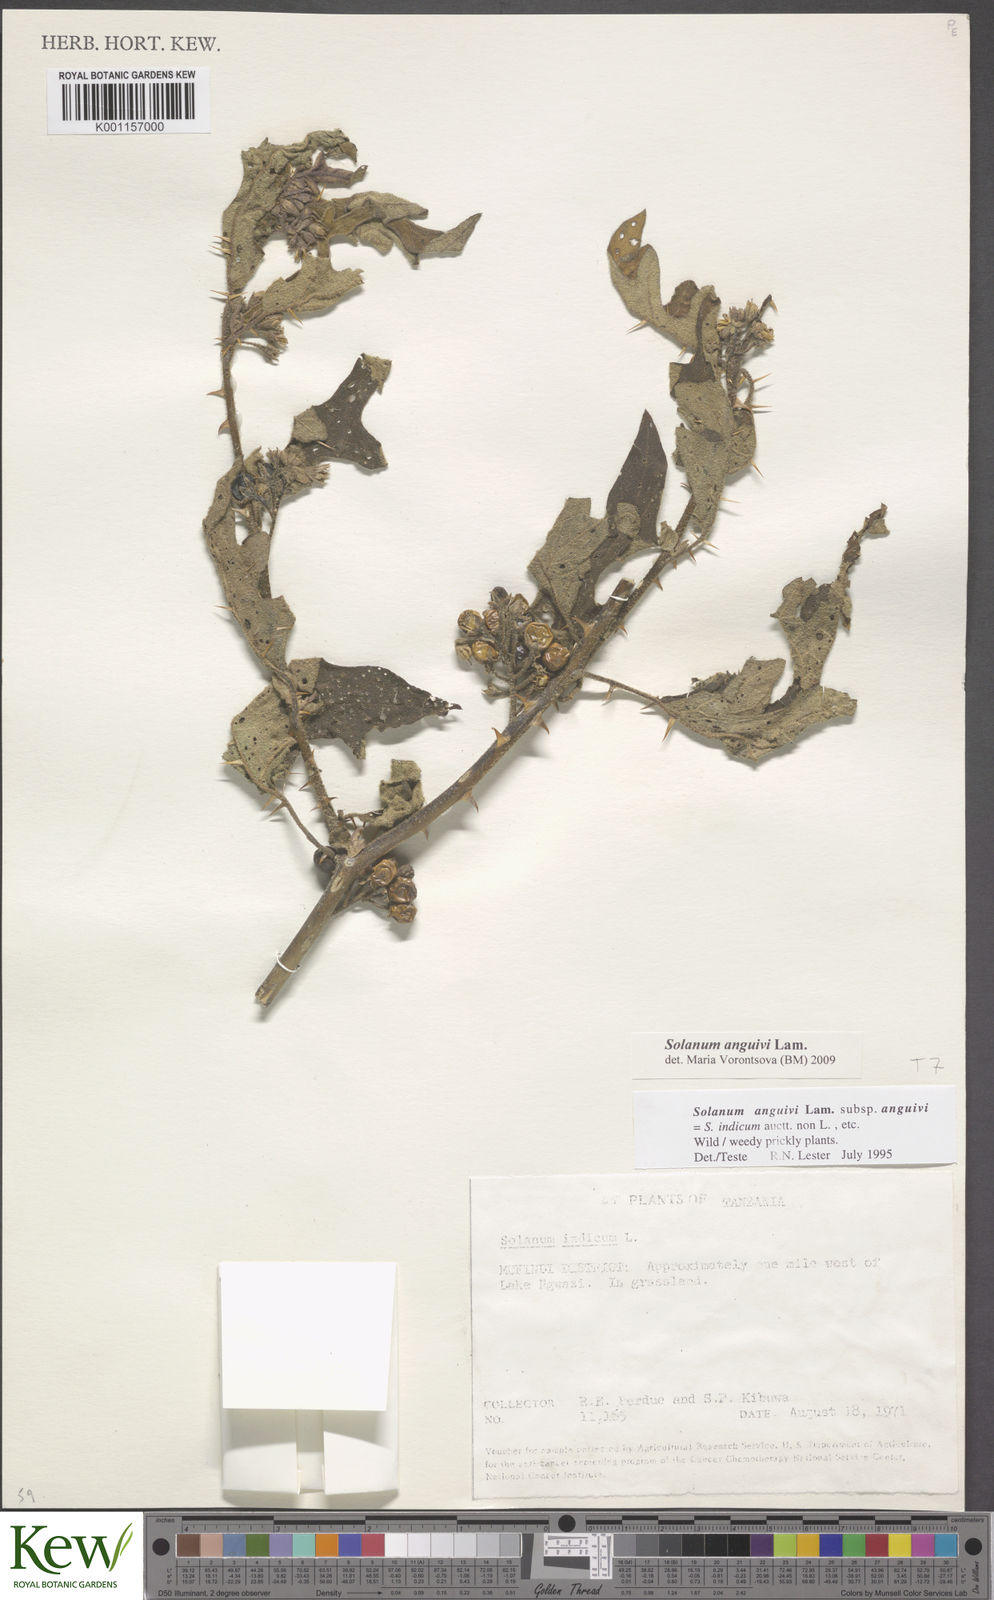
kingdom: Plantae
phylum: Tracheophyta
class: Magnoliopsida
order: Solanales
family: Solanaceae
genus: Solanum
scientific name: Solanum anguivi
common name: Forest bitterberry
